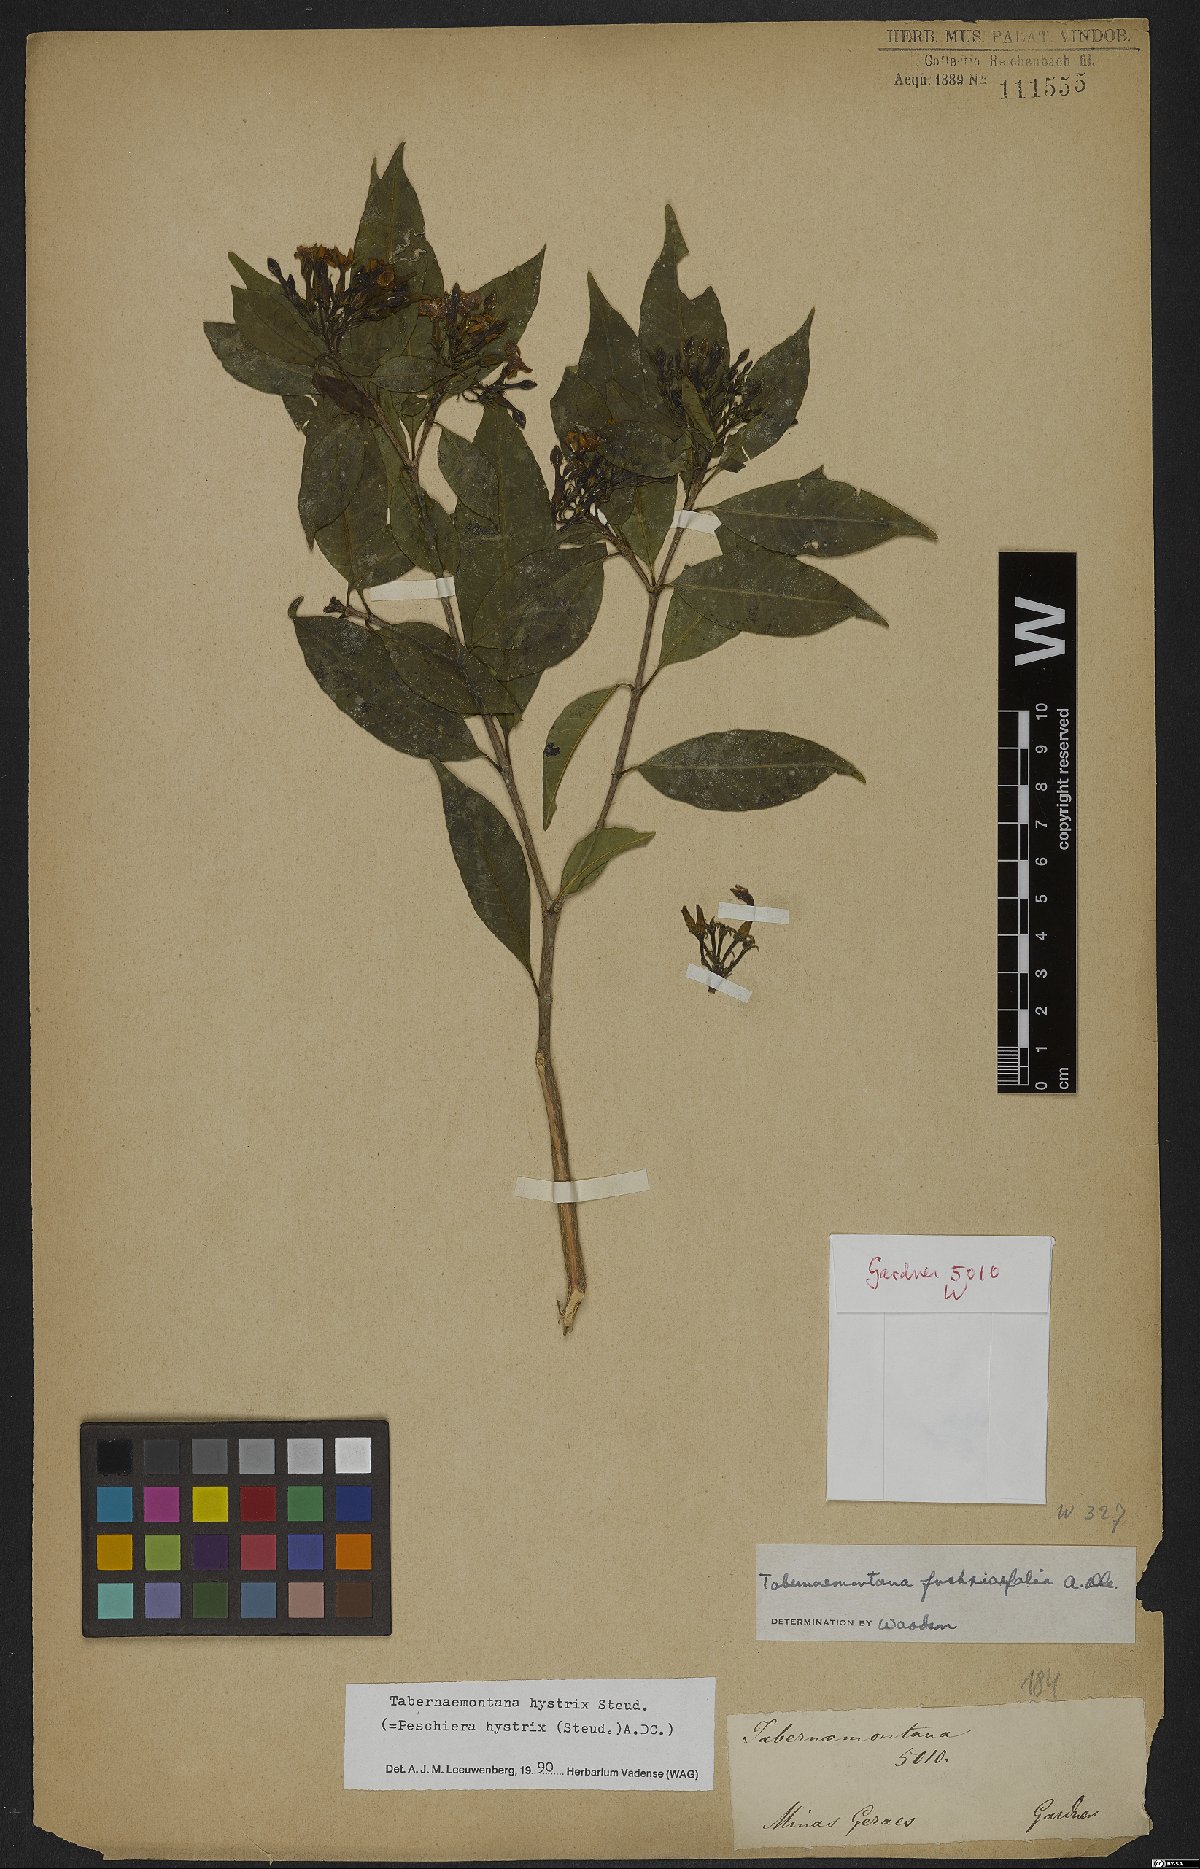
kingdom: Plantae
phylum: Tracheophyta
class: Magnoliopsida
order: Gentianales
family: Apocynaceae
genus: Tabernaemontana
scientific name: Tabernaemontana hystrix
